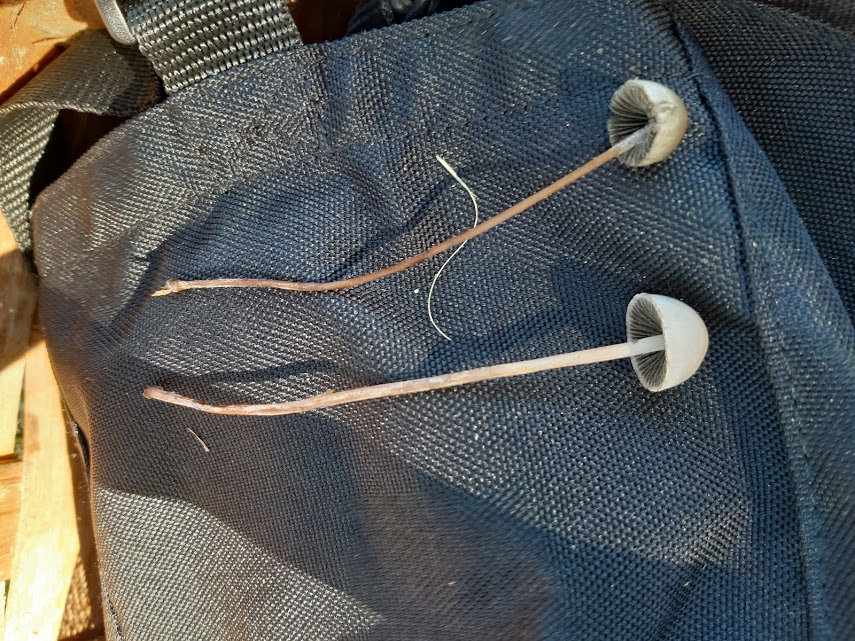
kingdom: Fungi
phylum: Basidiomycota
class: Agaricomycetes
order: Agaricales
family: Bolbitiaceae
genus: Panaeolus
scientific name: Panaeolus
